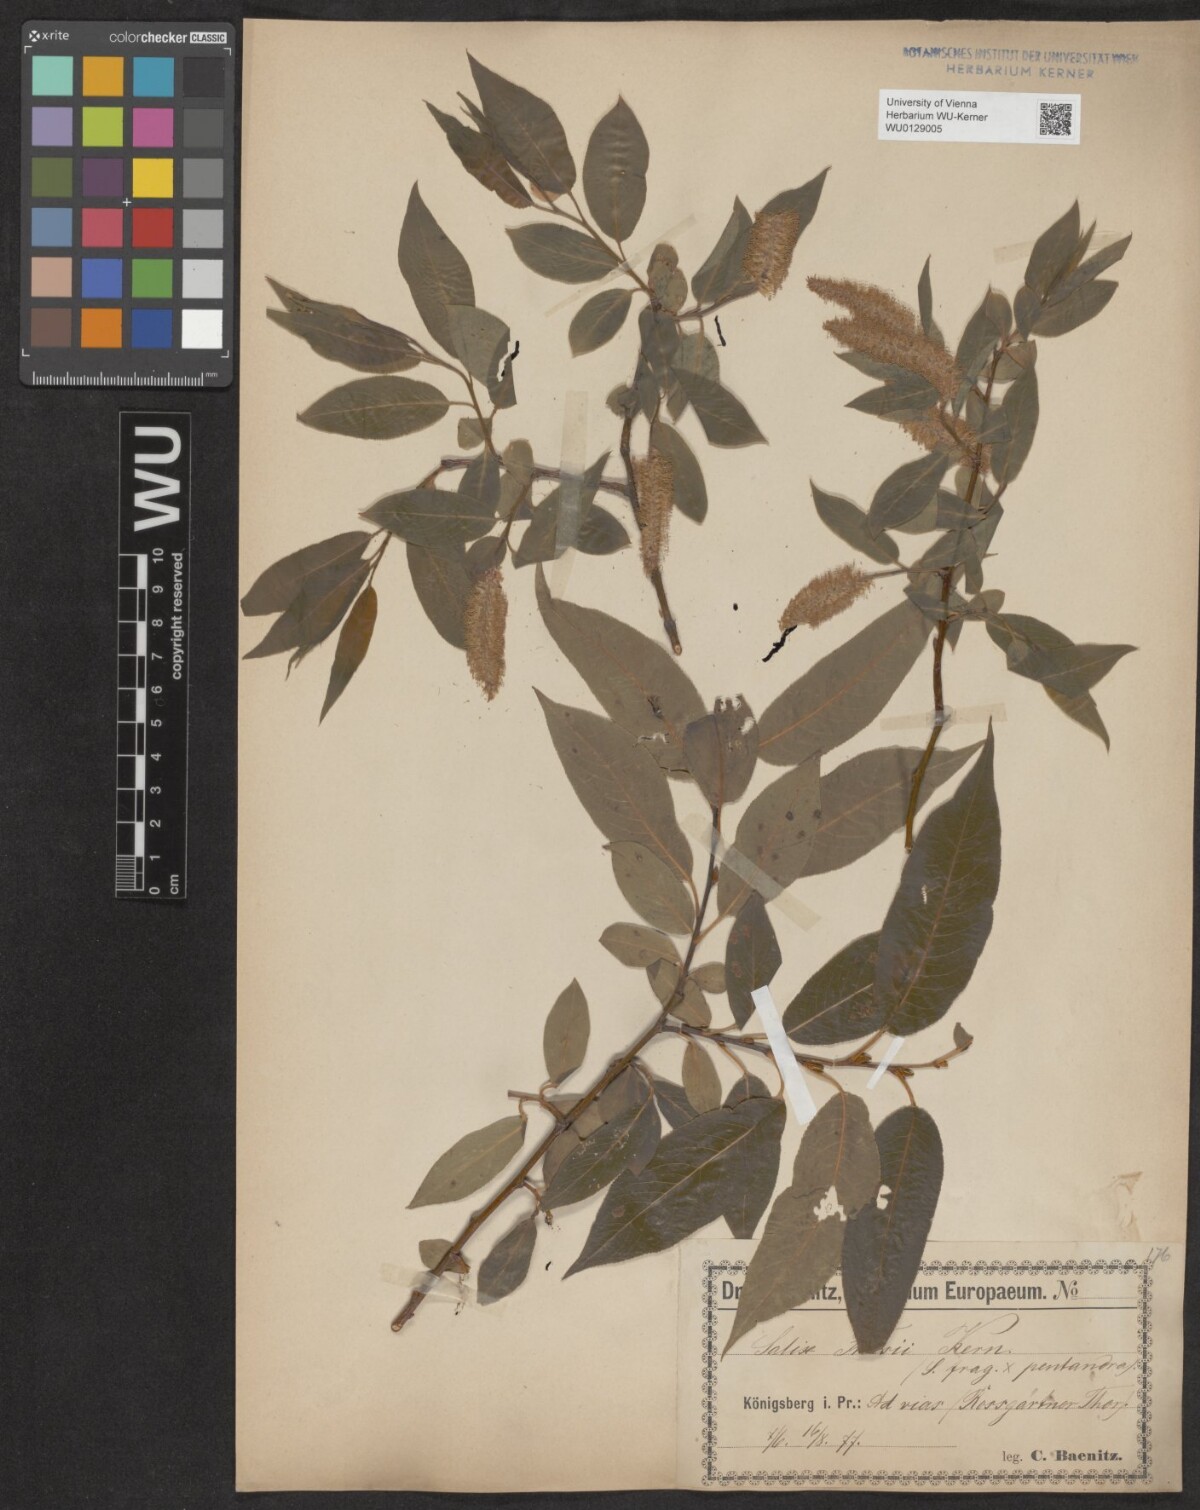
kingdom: Plantae
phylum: Tracheophyta
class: Magnoliopsida
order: Malpighiales
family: Salicaceae
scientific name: Salicaceae
